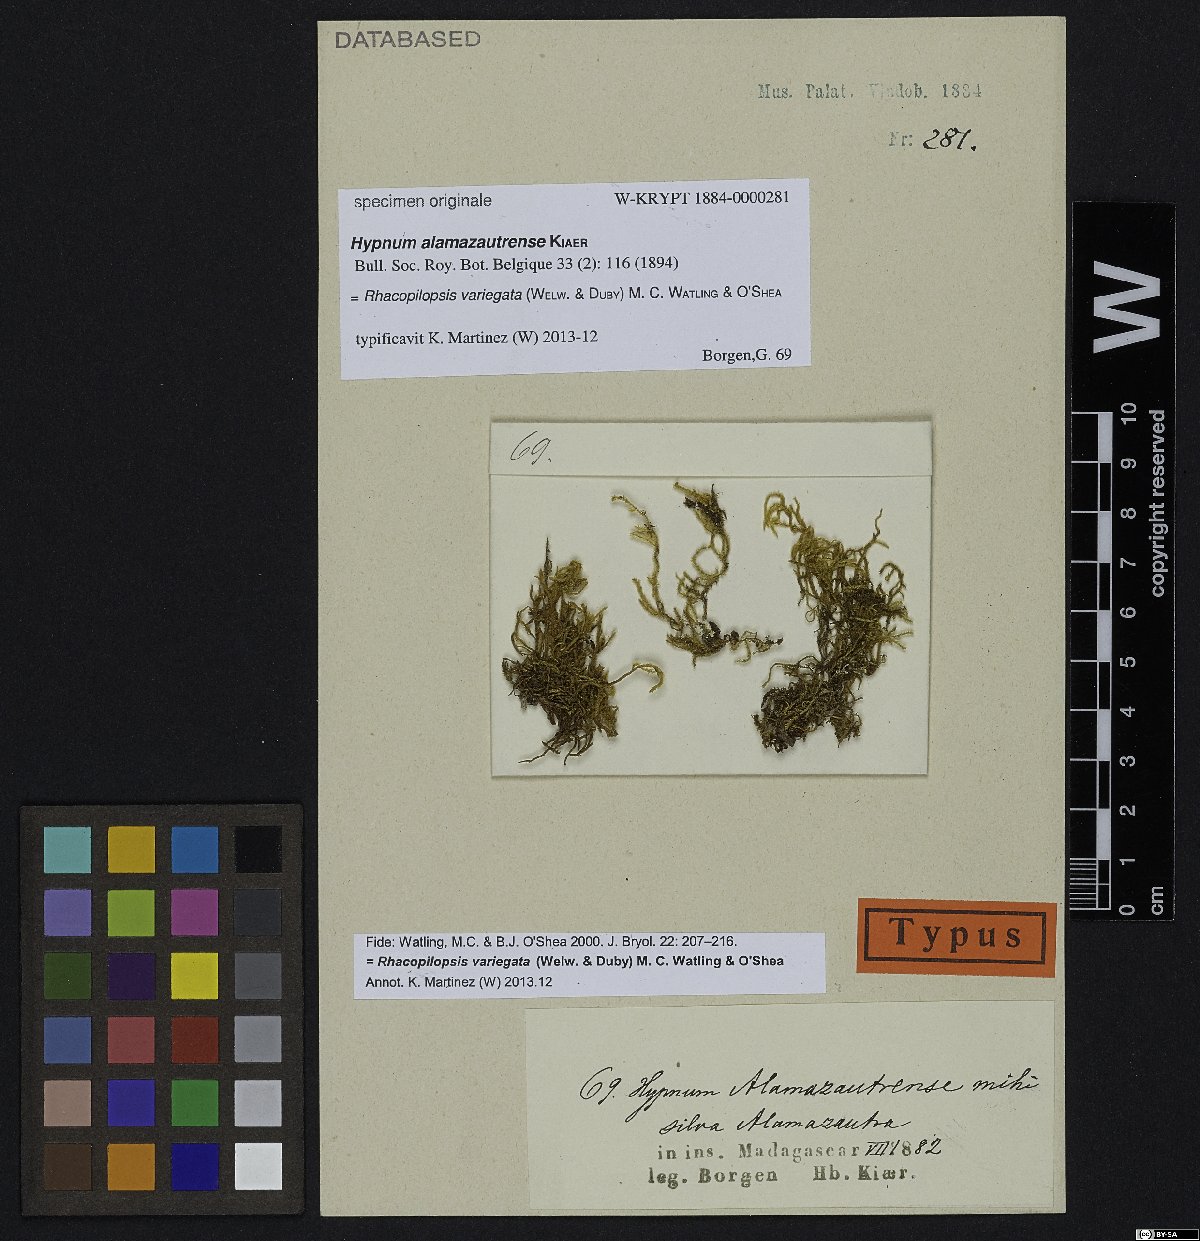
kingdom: Plantae
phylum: Bryophyta
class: Bryopsida
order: Hypnales
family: Hypnaceae
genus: Rhacopilopsis
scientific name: Rhacopilopsis variegata
